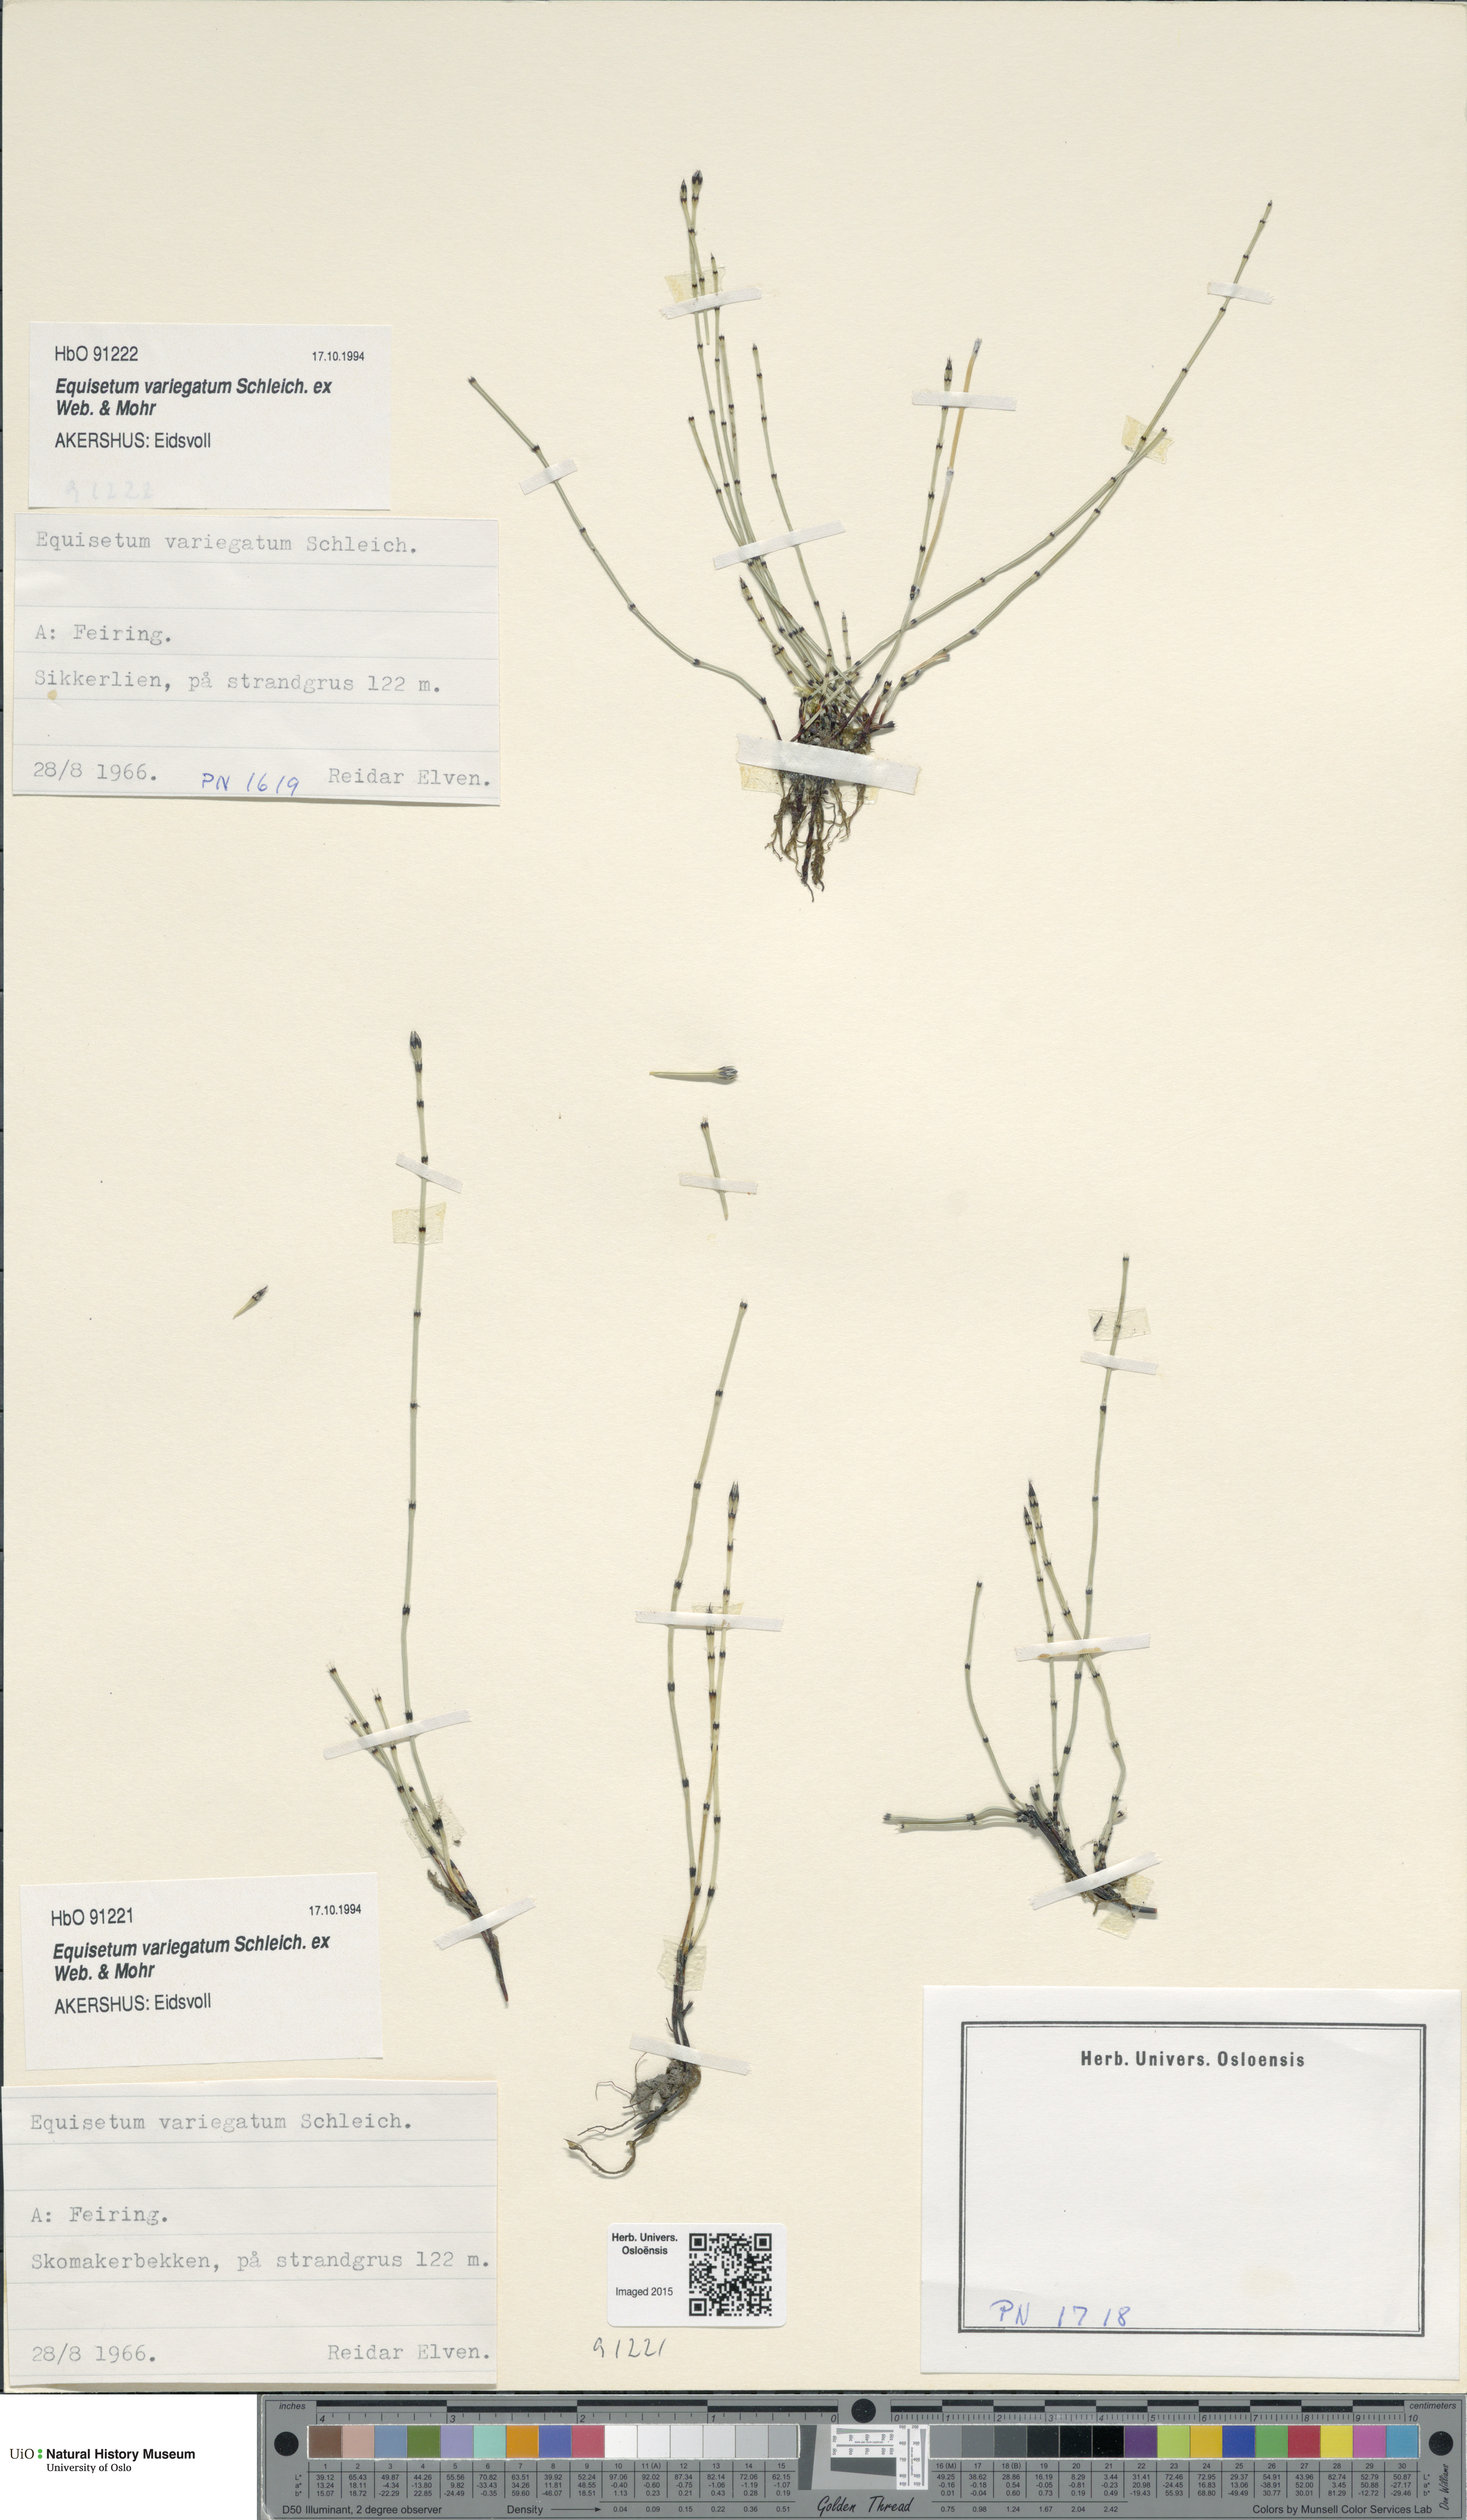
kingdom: Plantae
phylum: Tracheophyta
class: Polypodiopsida
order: Equisetales
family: Equisetaceae
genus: Equisetum
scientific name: Equisetum variegatum
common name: Variegated horsetail
